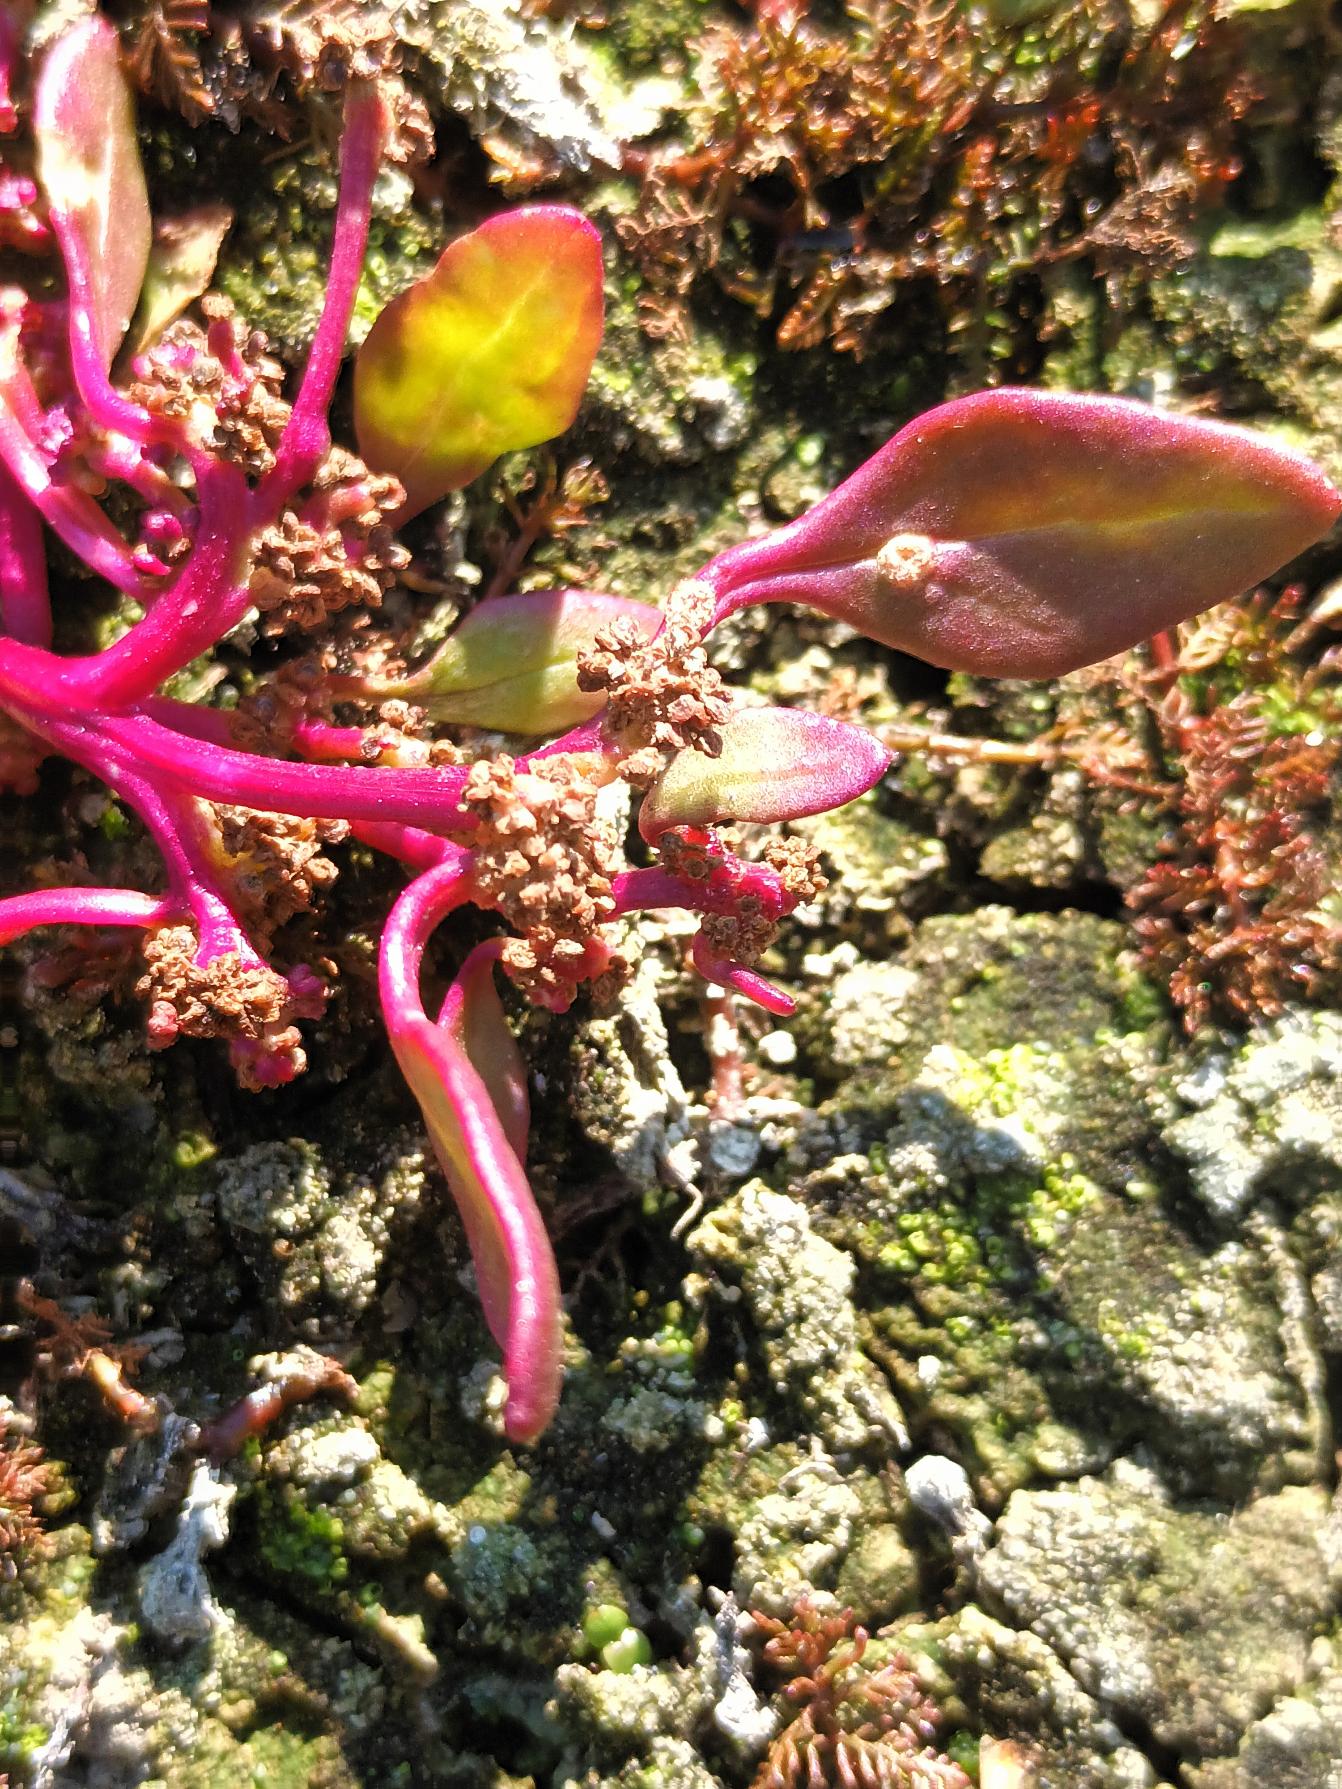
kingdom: Plantae
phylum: Tracheophyta
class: Magnoliopsida
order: Caryophyllales
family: Amaranthaceae
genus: Oxybasis
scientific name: Oxybasis chenopodioides
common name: Drue-gåsefod
